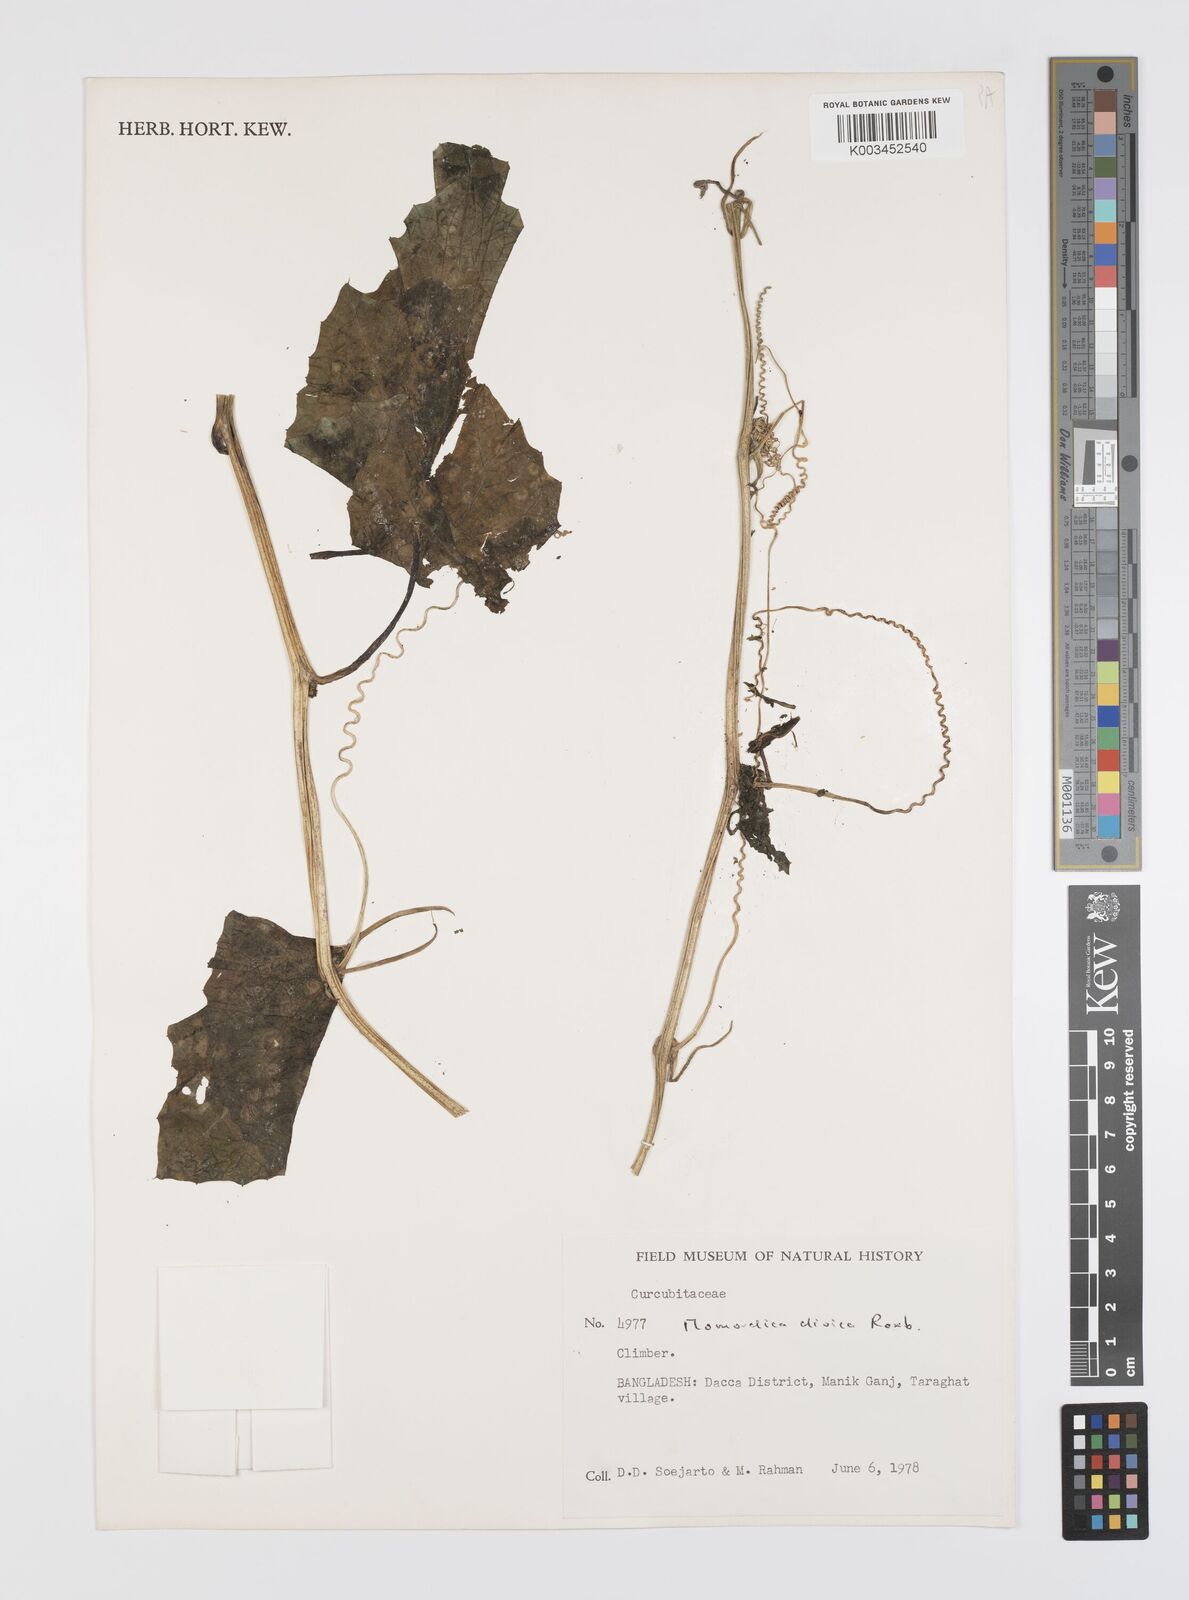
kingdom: Plantae
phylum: Tracheophyta
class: Magnoliopsida
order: Cucurbitales
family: Cucurbitaceae
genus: Momordica
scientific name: Momordica dioica
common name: Spine gourd
